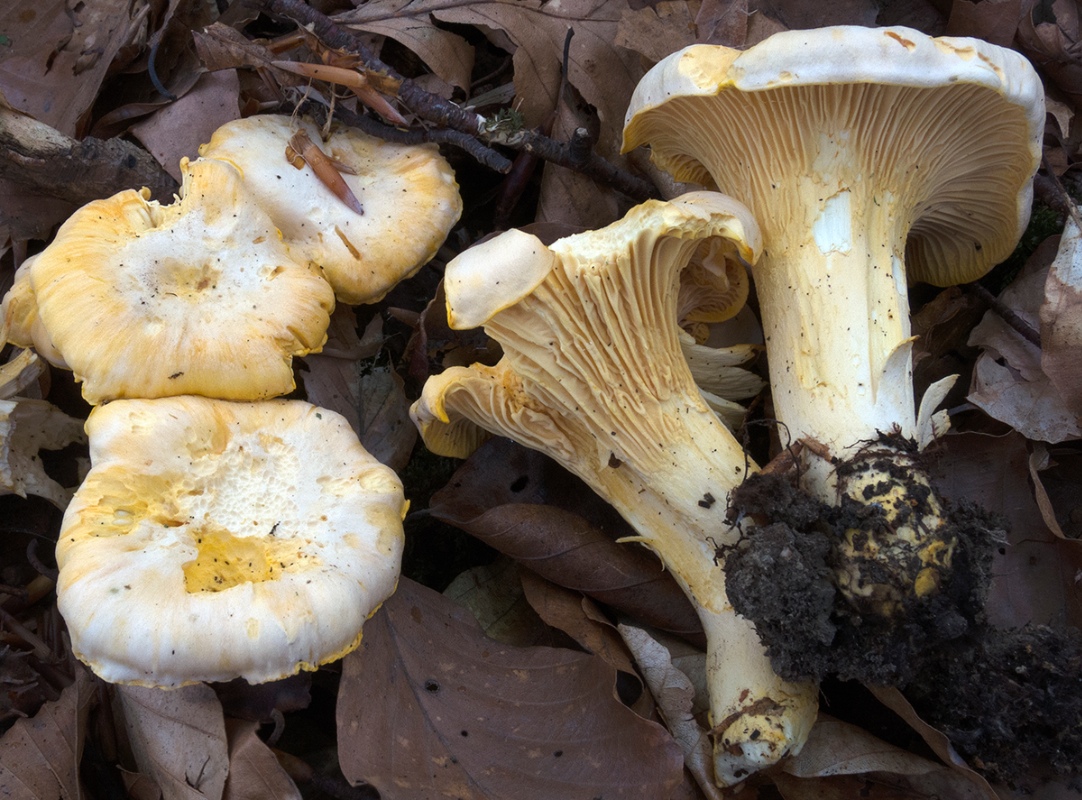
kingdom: Fungi
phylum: Basidiomycota
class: Agaricomycetes
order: Cantharellales
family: Hydnaceae
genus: Cantharellus
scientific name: Cantharellus pallens
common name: bleg kantarel
